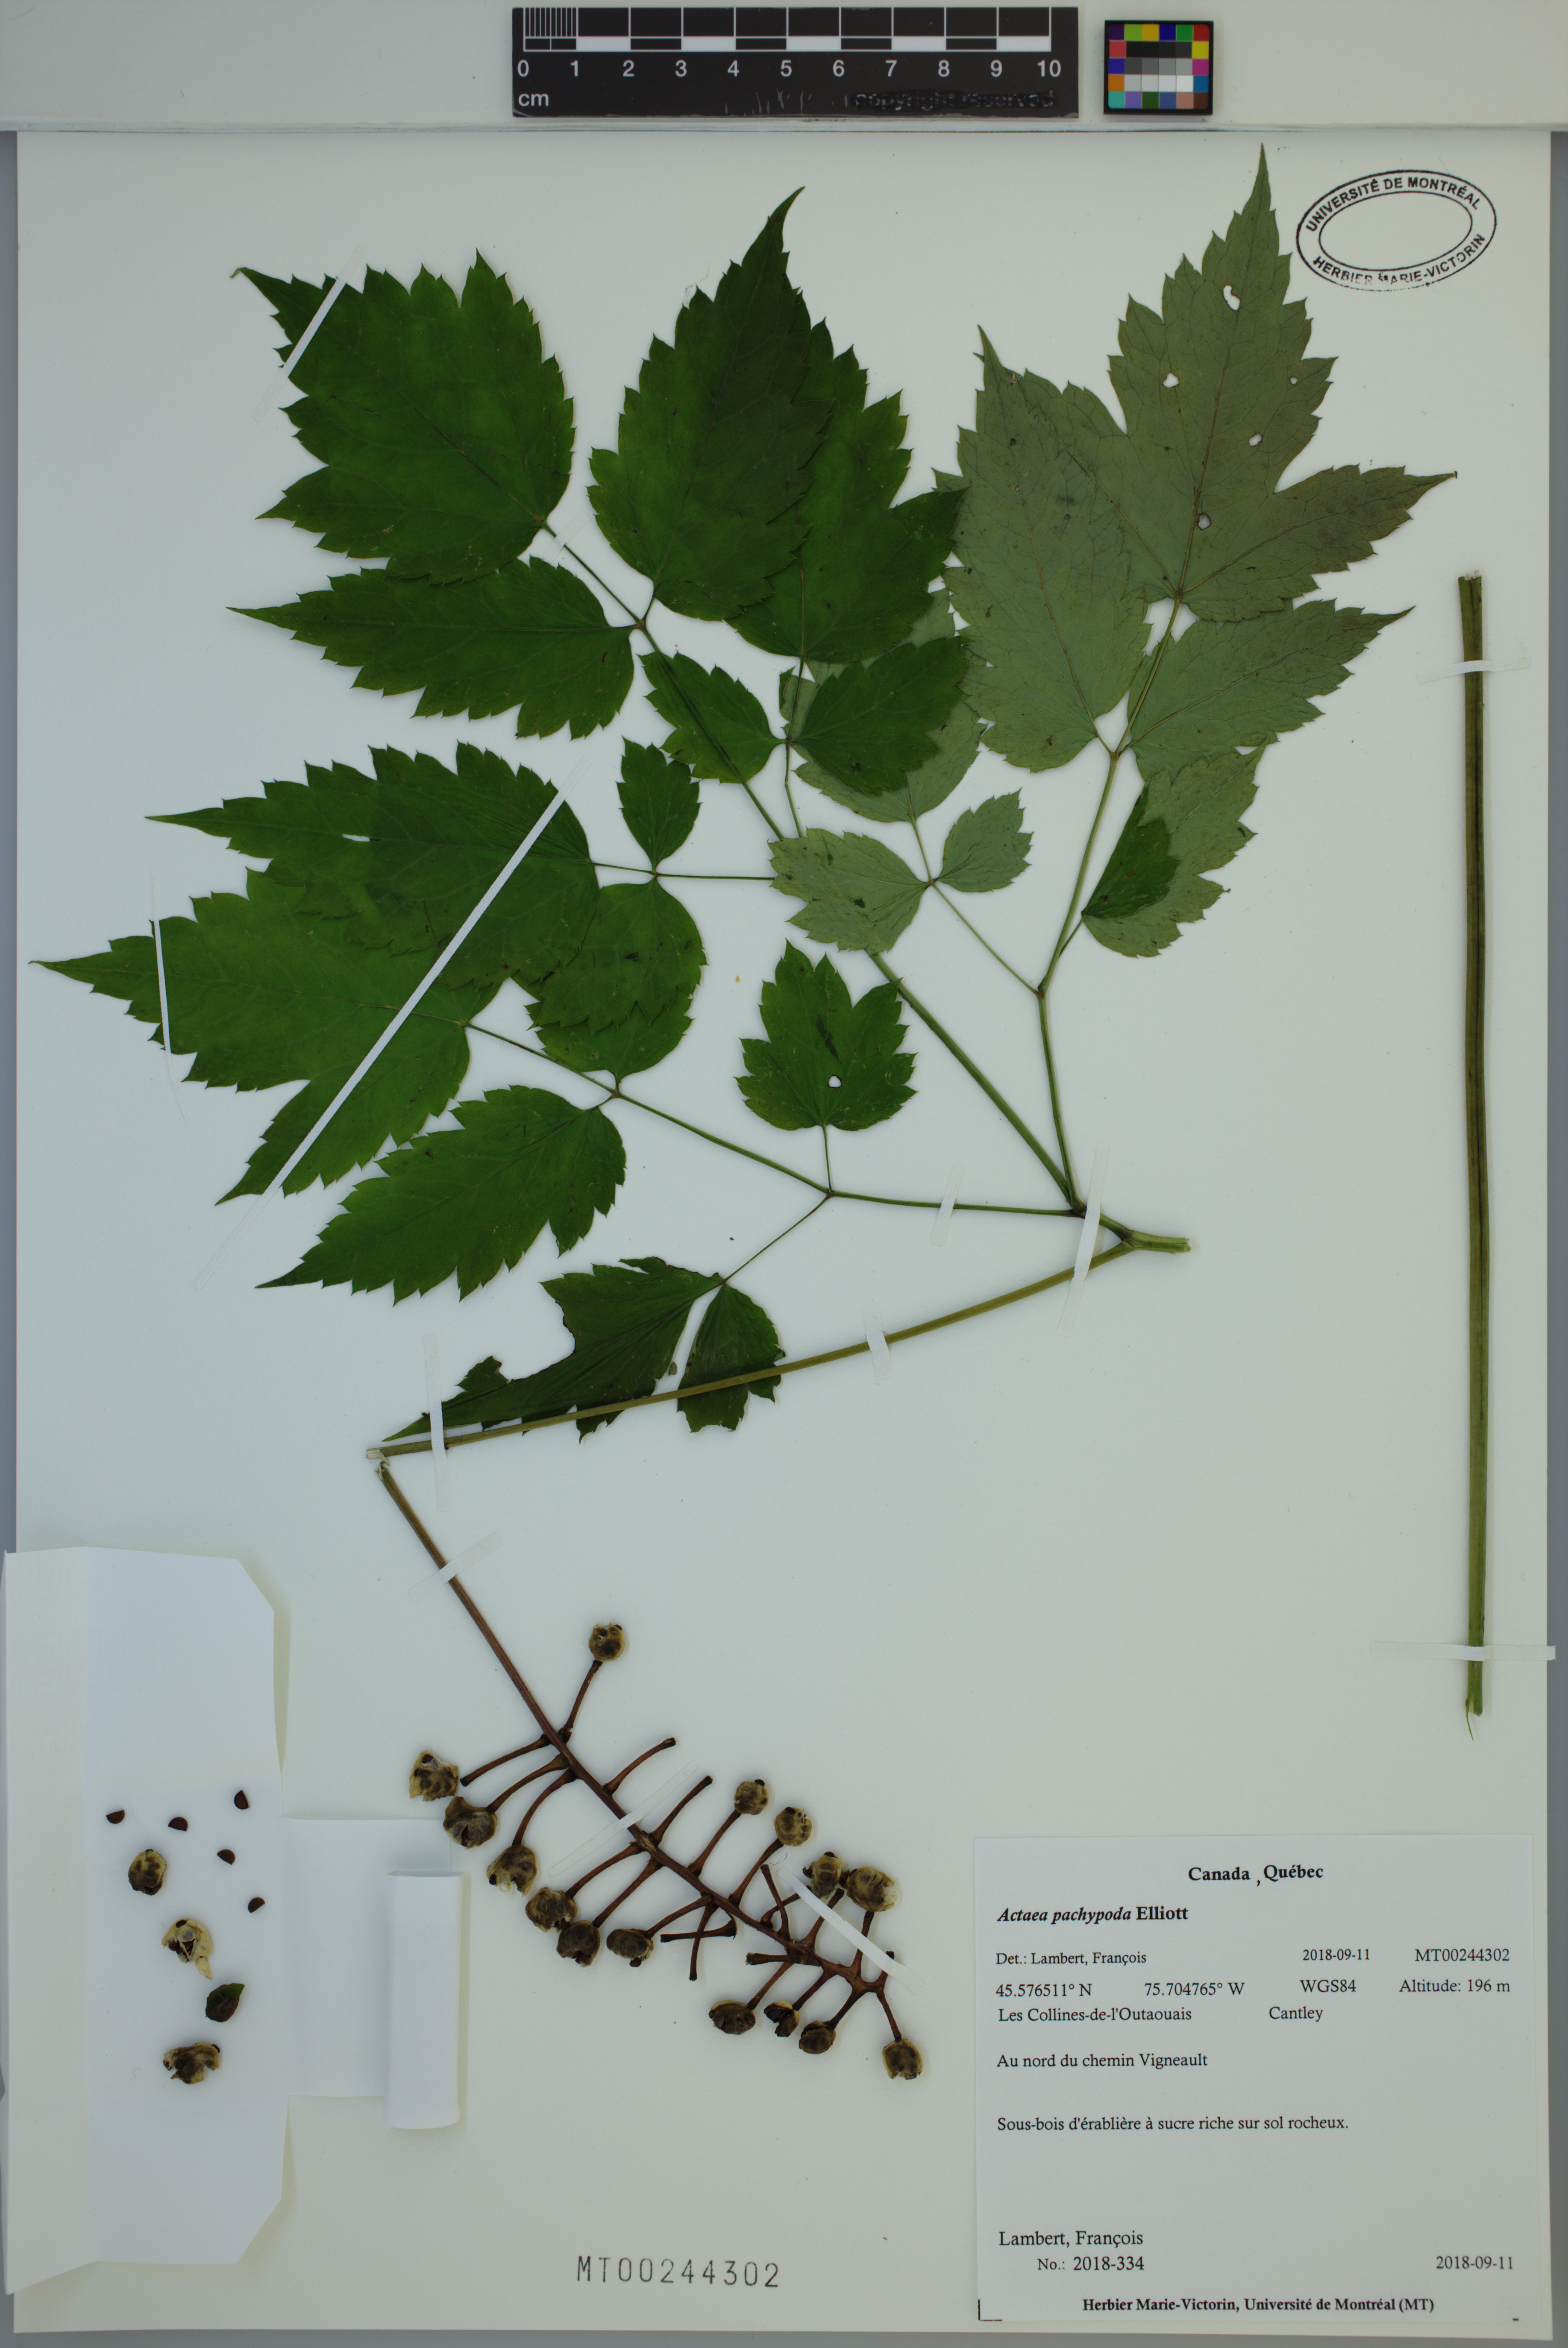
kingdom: Plantae
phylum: Tracheophyta
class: Magnoliopsida
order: Ranunculales
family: Ranunculaceae
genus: Actaea
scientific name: Actaea pachypoda
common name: Doll's-eyes
